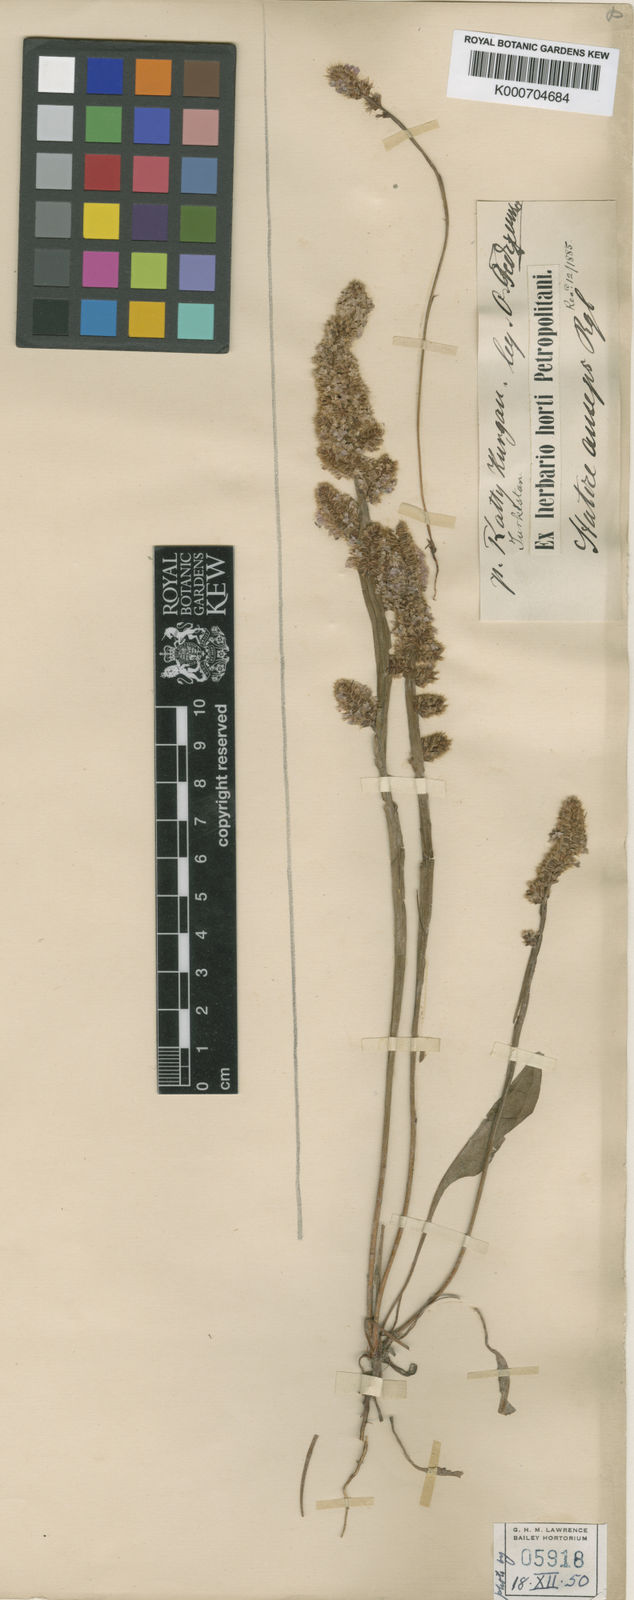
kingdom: Plantae
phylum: Tracheophyta
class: Magnoliopsida
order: Caryophyllales
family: Plumbaginaceae
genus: Psylliostachys
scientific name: Psylliostachys
